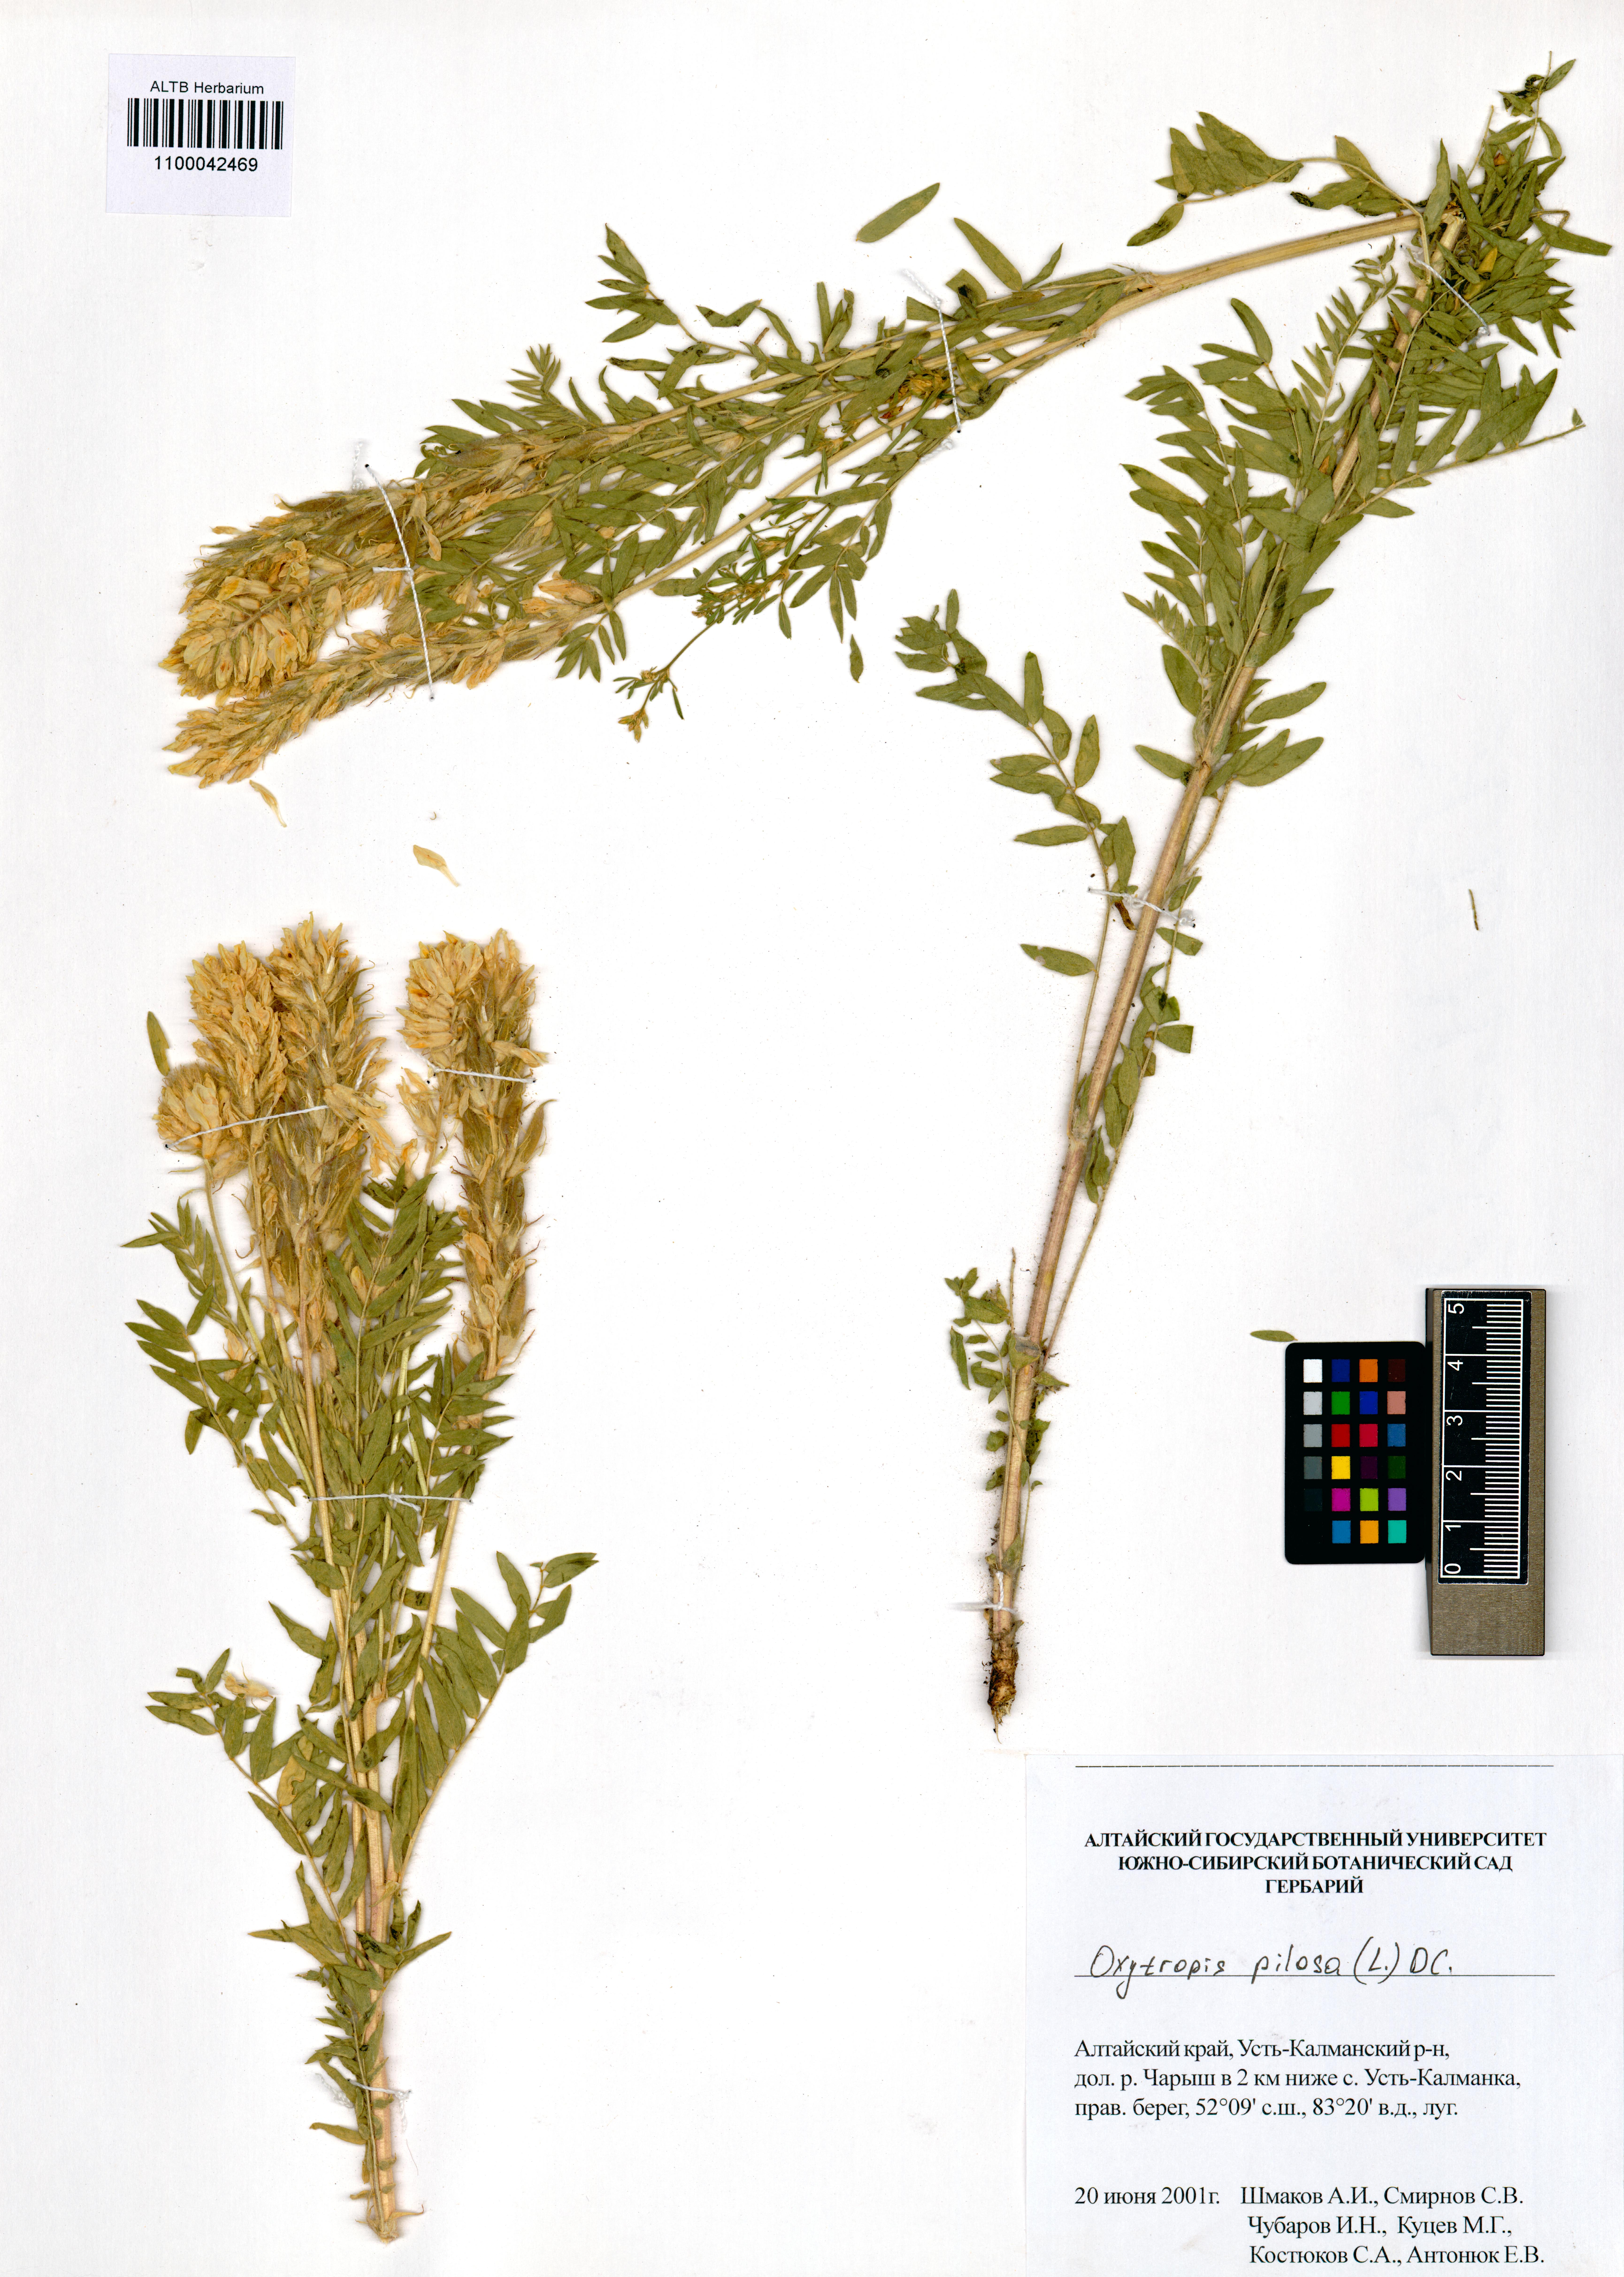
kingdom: Plantae
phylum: Tracheophyta
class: Magnoliopsida
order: Fabales
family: Fabaceae
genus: Oxytropis
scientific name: Oxytropis pilosa
